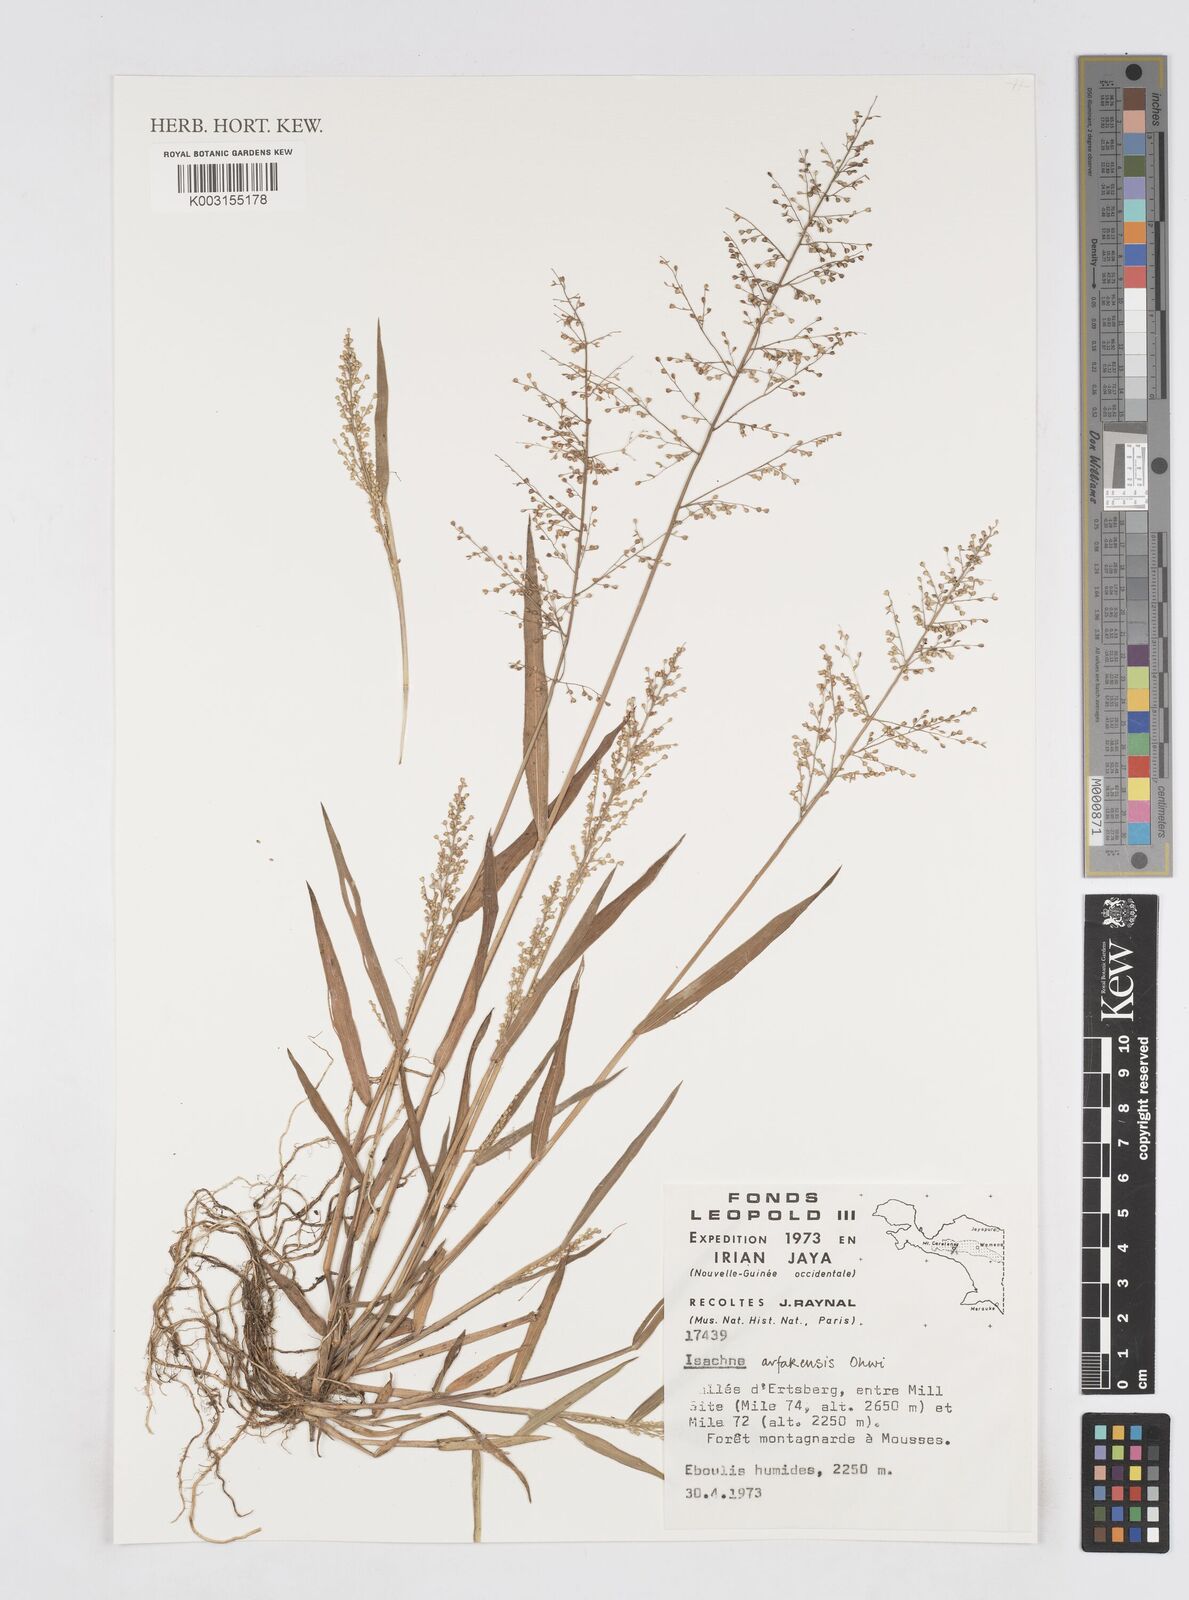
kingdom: Plantae
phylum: Tracheophyta
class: Liliopsida
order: Poales
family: Poaceae
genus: Isachne
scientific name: Isachne arfakensis
